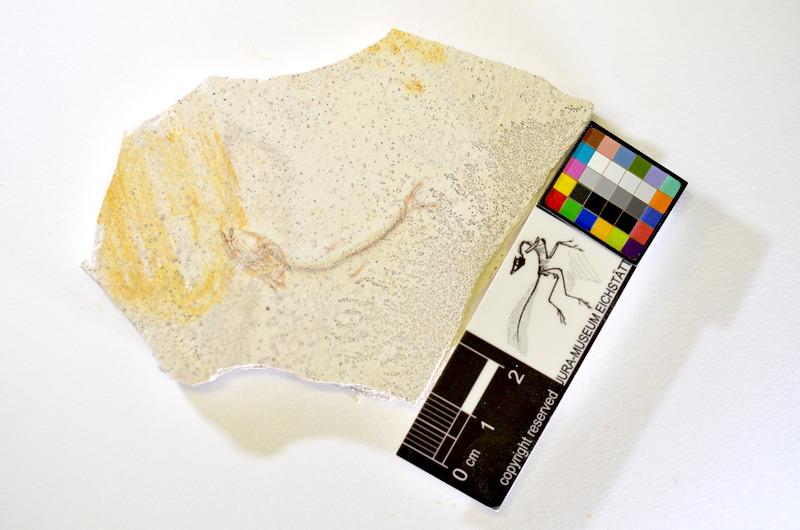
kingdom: Animalia
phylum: Chordata
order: Salmoniformes
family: Orthogonikleithridae
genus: Orthogonikleithrus
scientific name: Orthogonikleithrus hoelli
